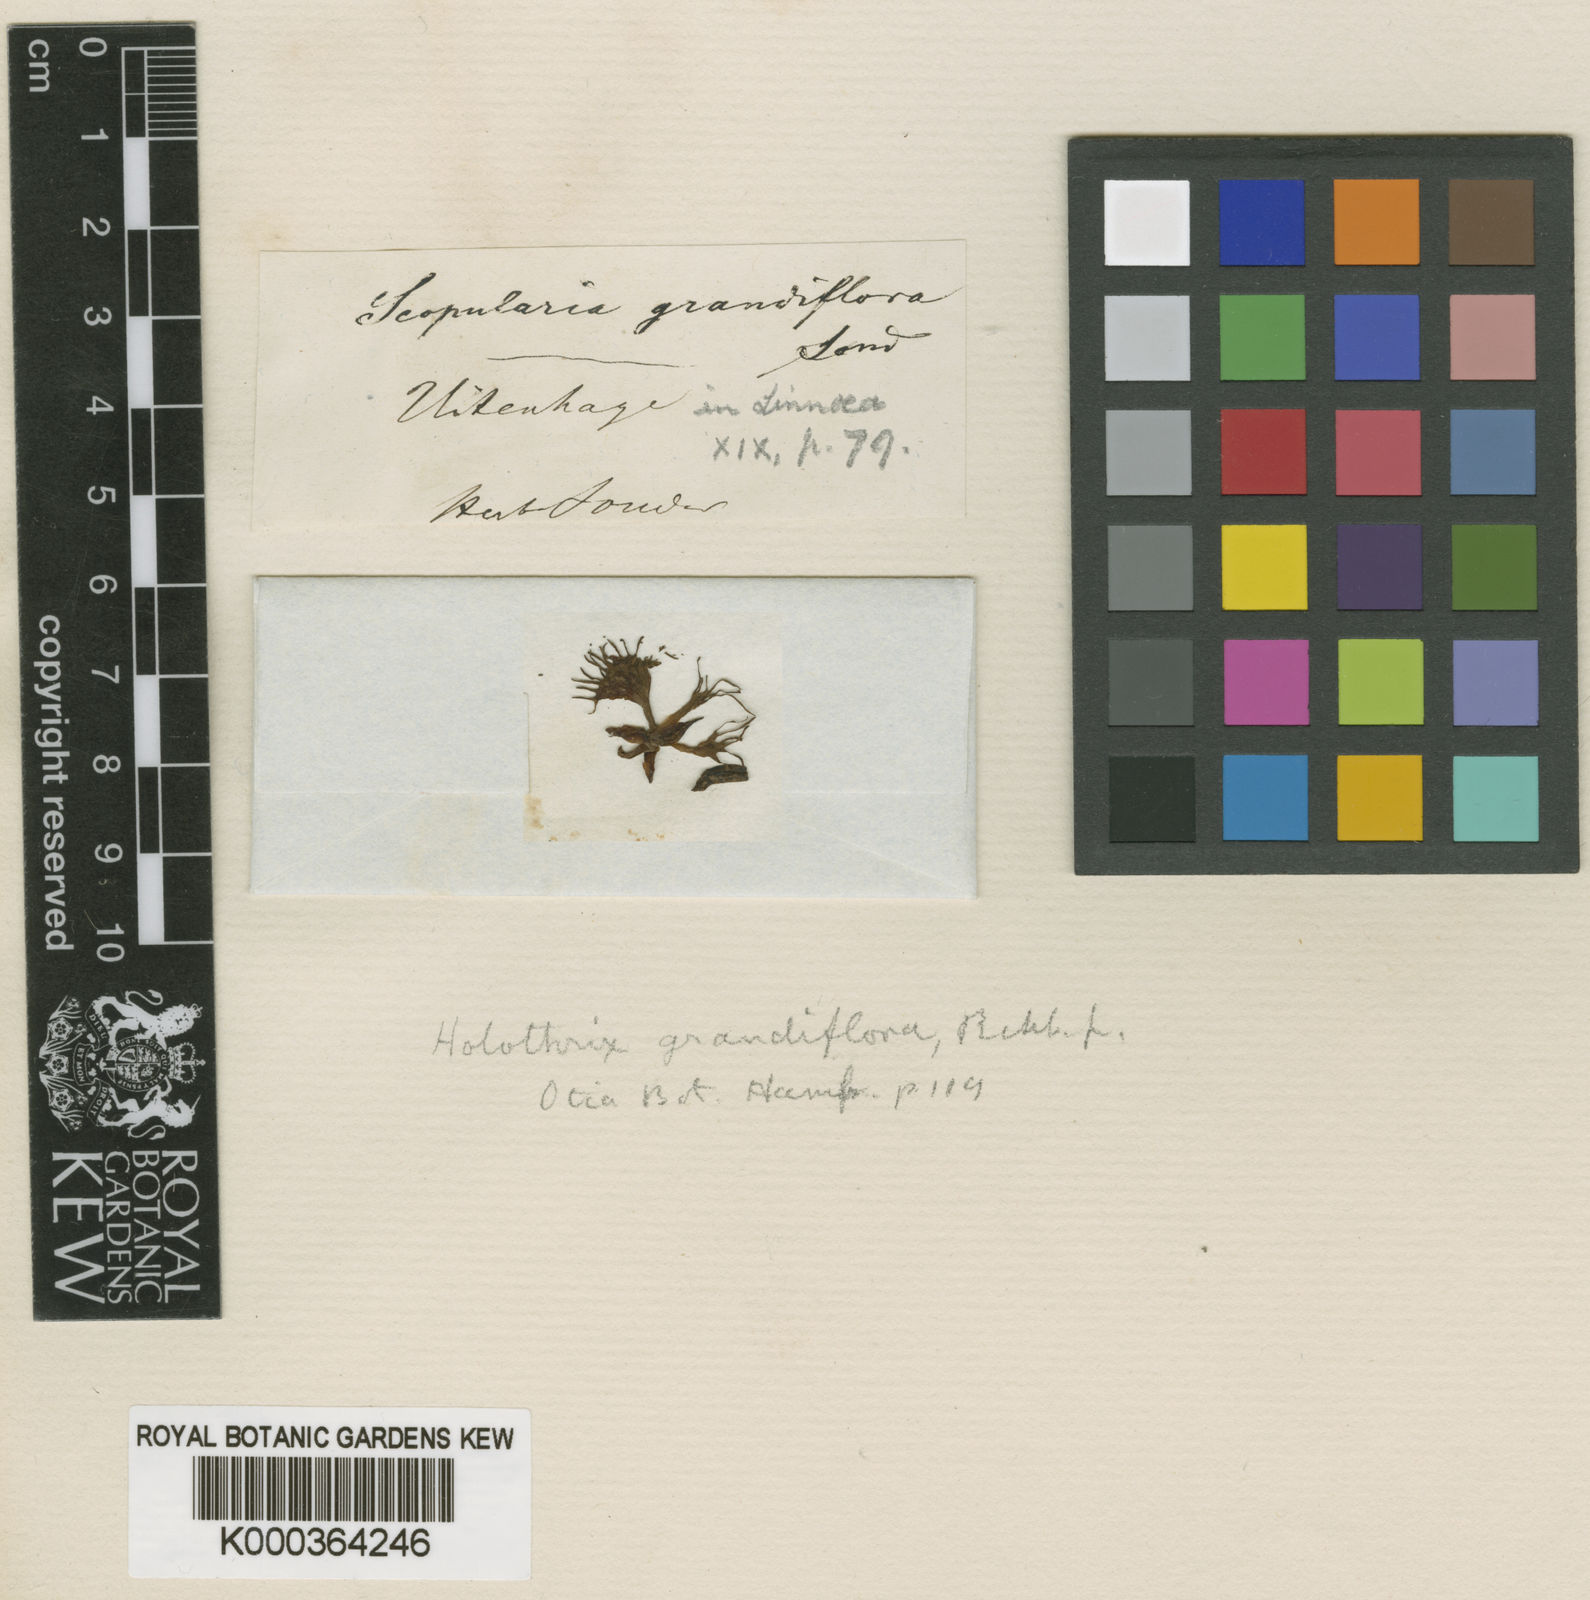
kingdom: Plantae
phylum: Tracheophyta
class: Liliopsida
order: Asparagales
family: Orchidaceae
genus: Holothrix
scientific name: Holothrix grandiflora
